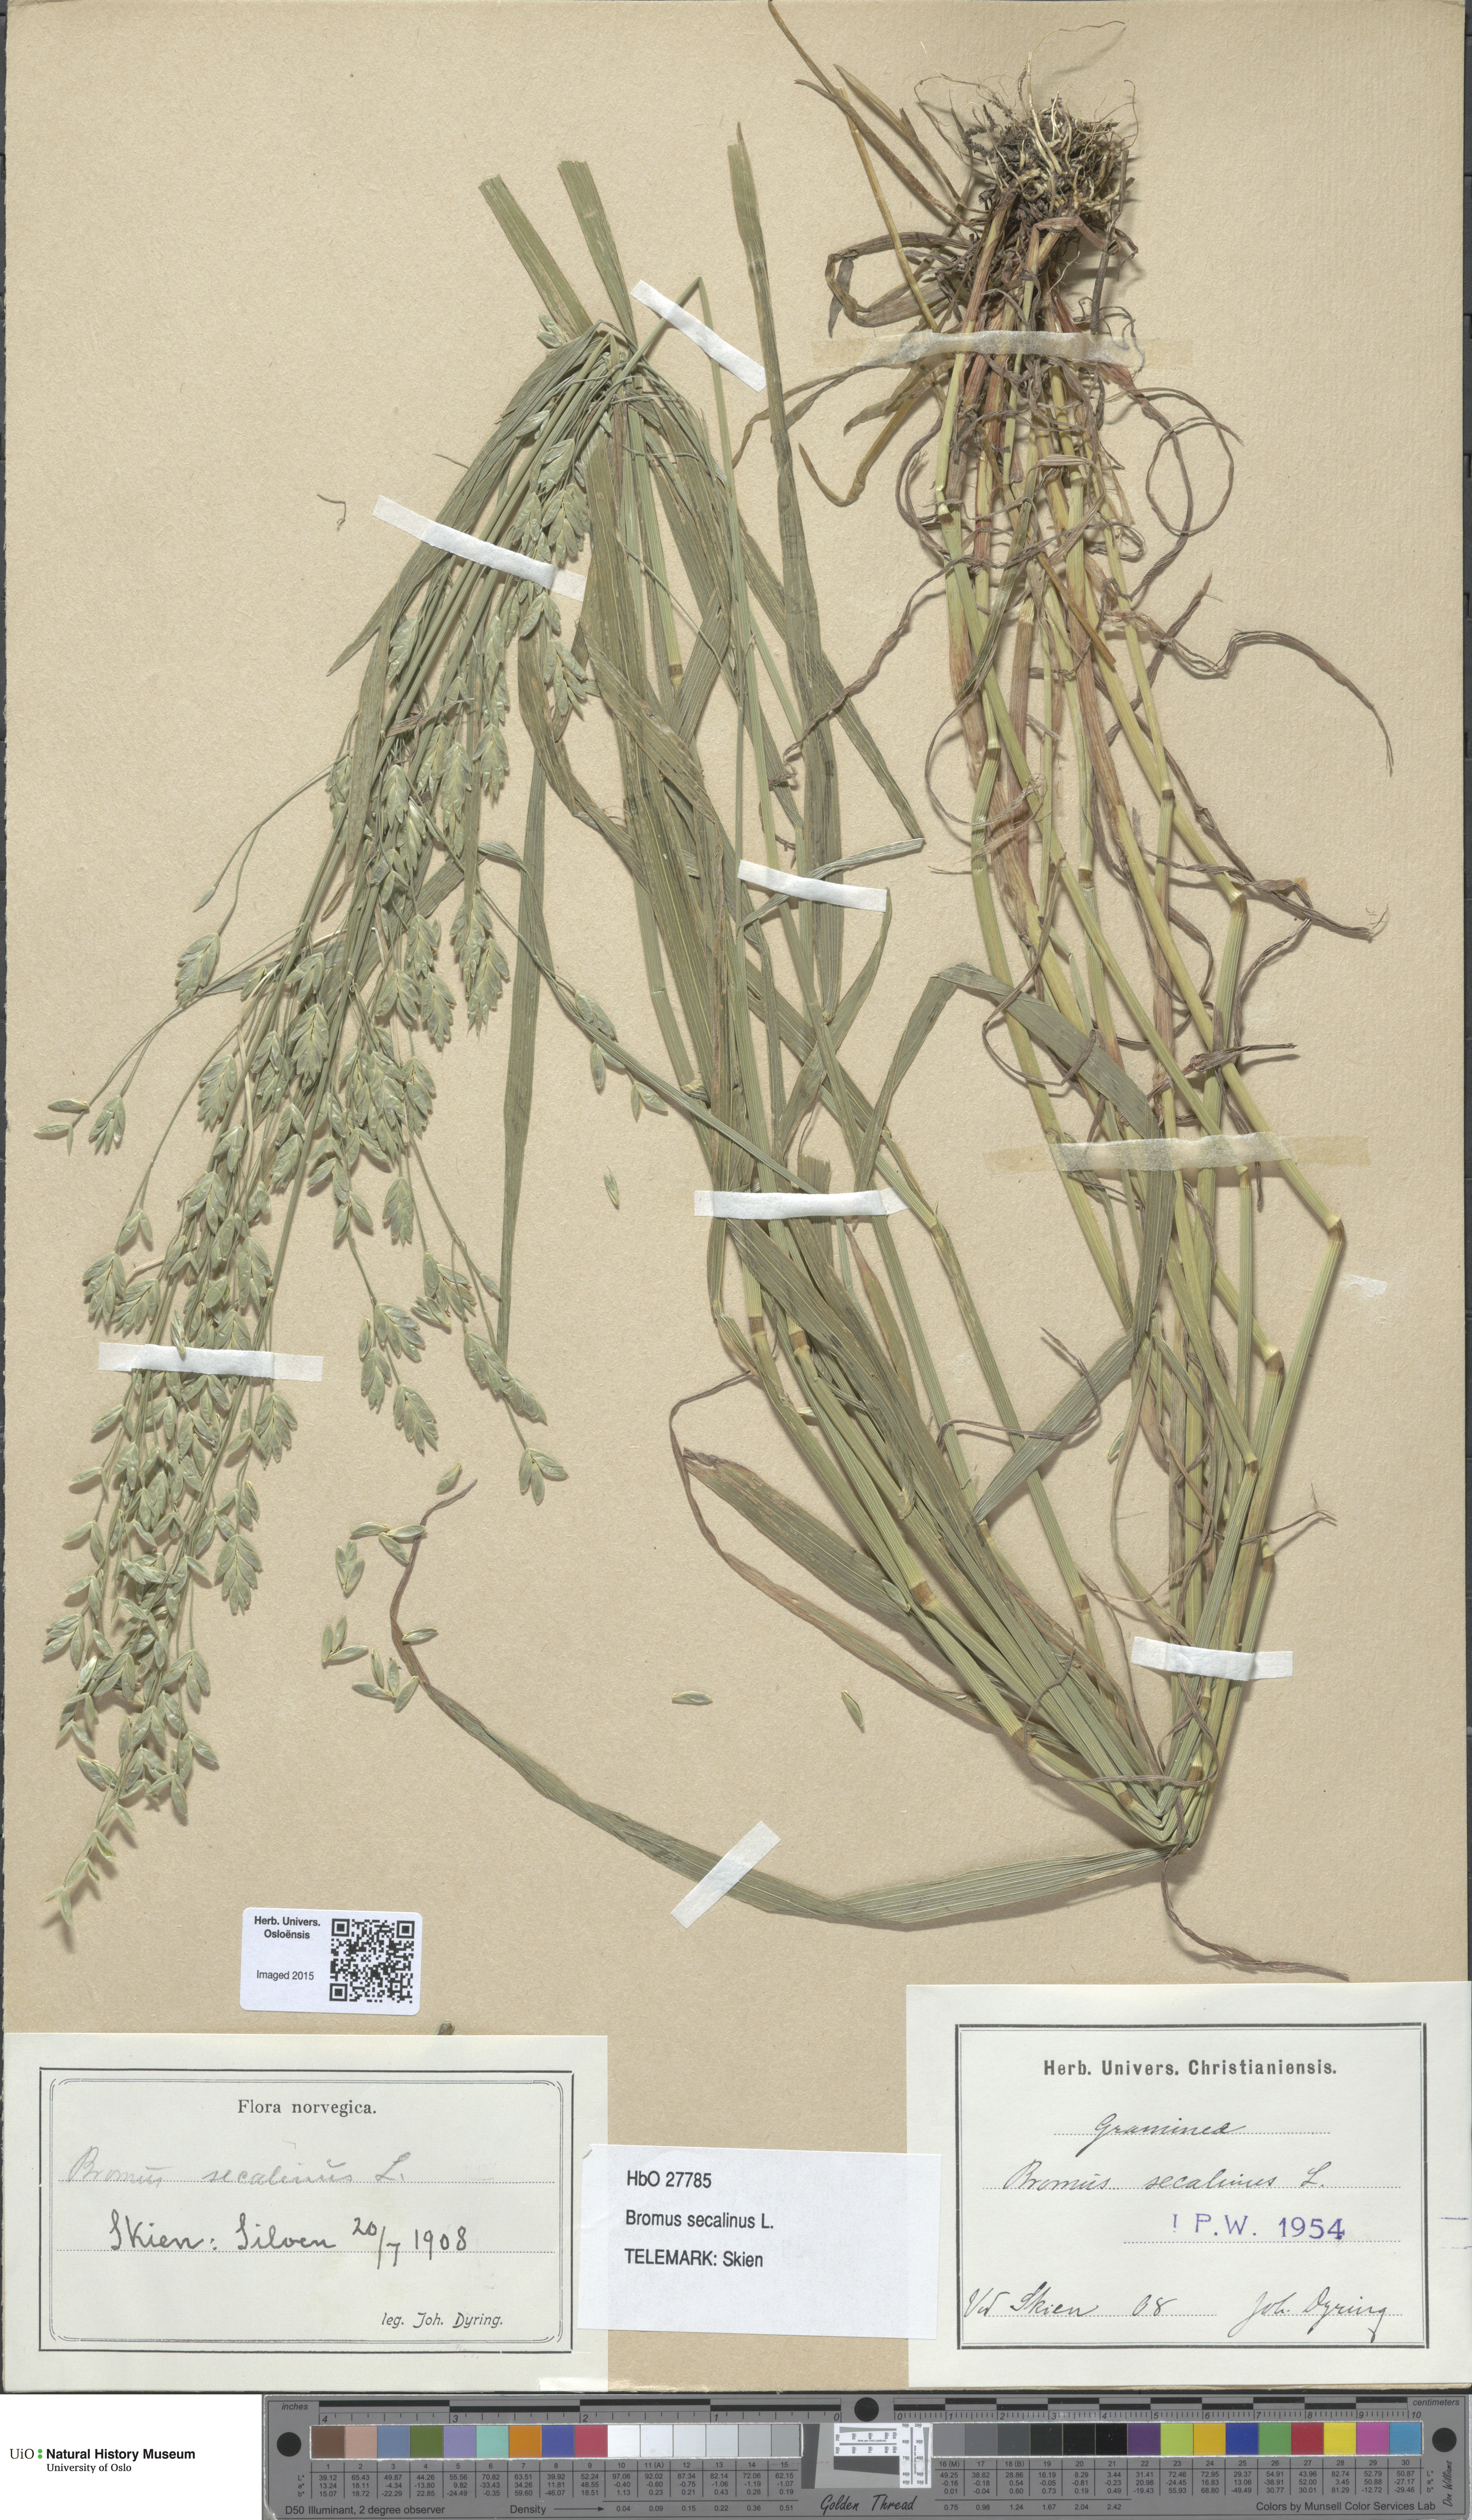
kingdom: Plantae
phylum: Tracheophyta
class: Liliopsida
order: Poales
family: Poaceae
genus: Bromus
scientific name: Bromus secalinus
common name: Rye brome
